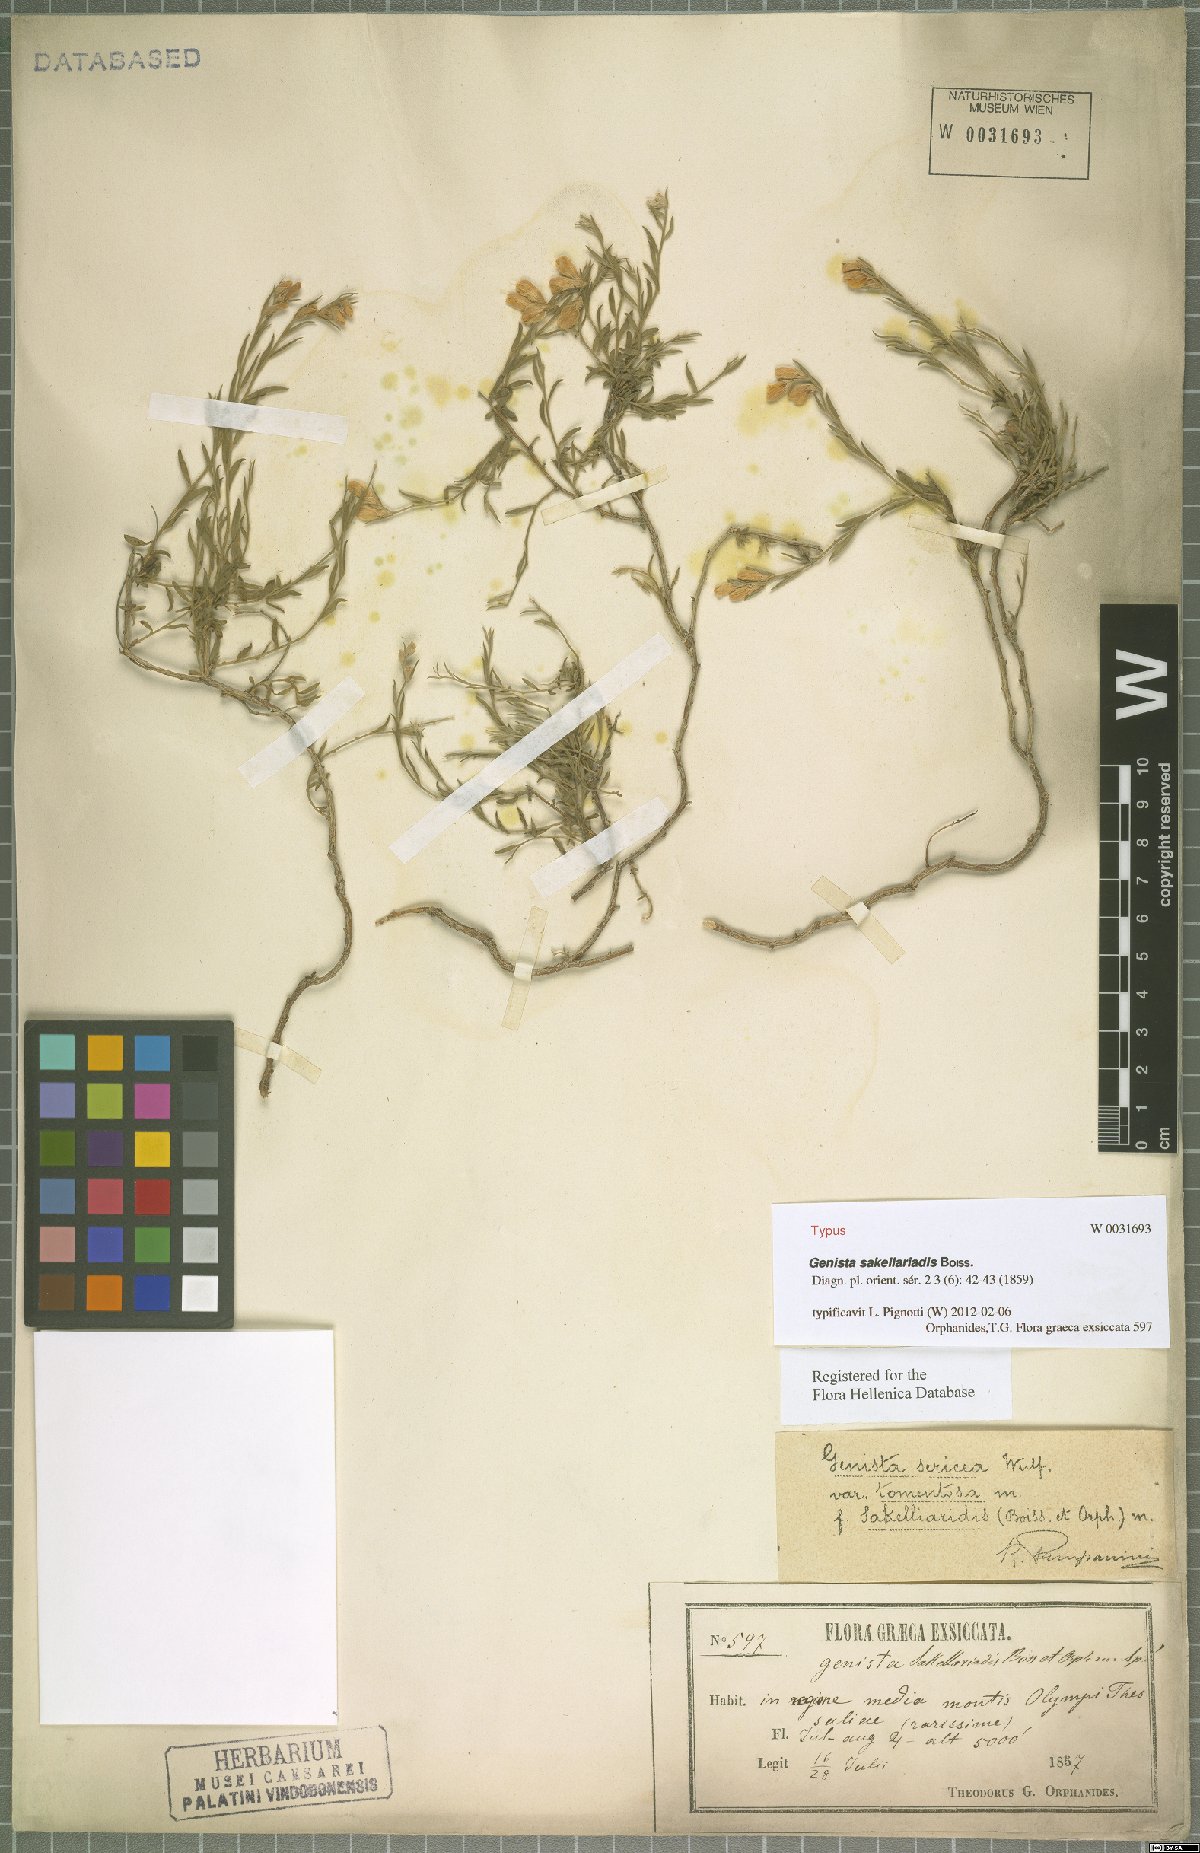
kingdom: Plantae
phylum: Tracheophyta
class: Magnoliopsida
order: Fabales
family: Fabaceae
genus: Genista
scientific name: Genista sakellariadis
